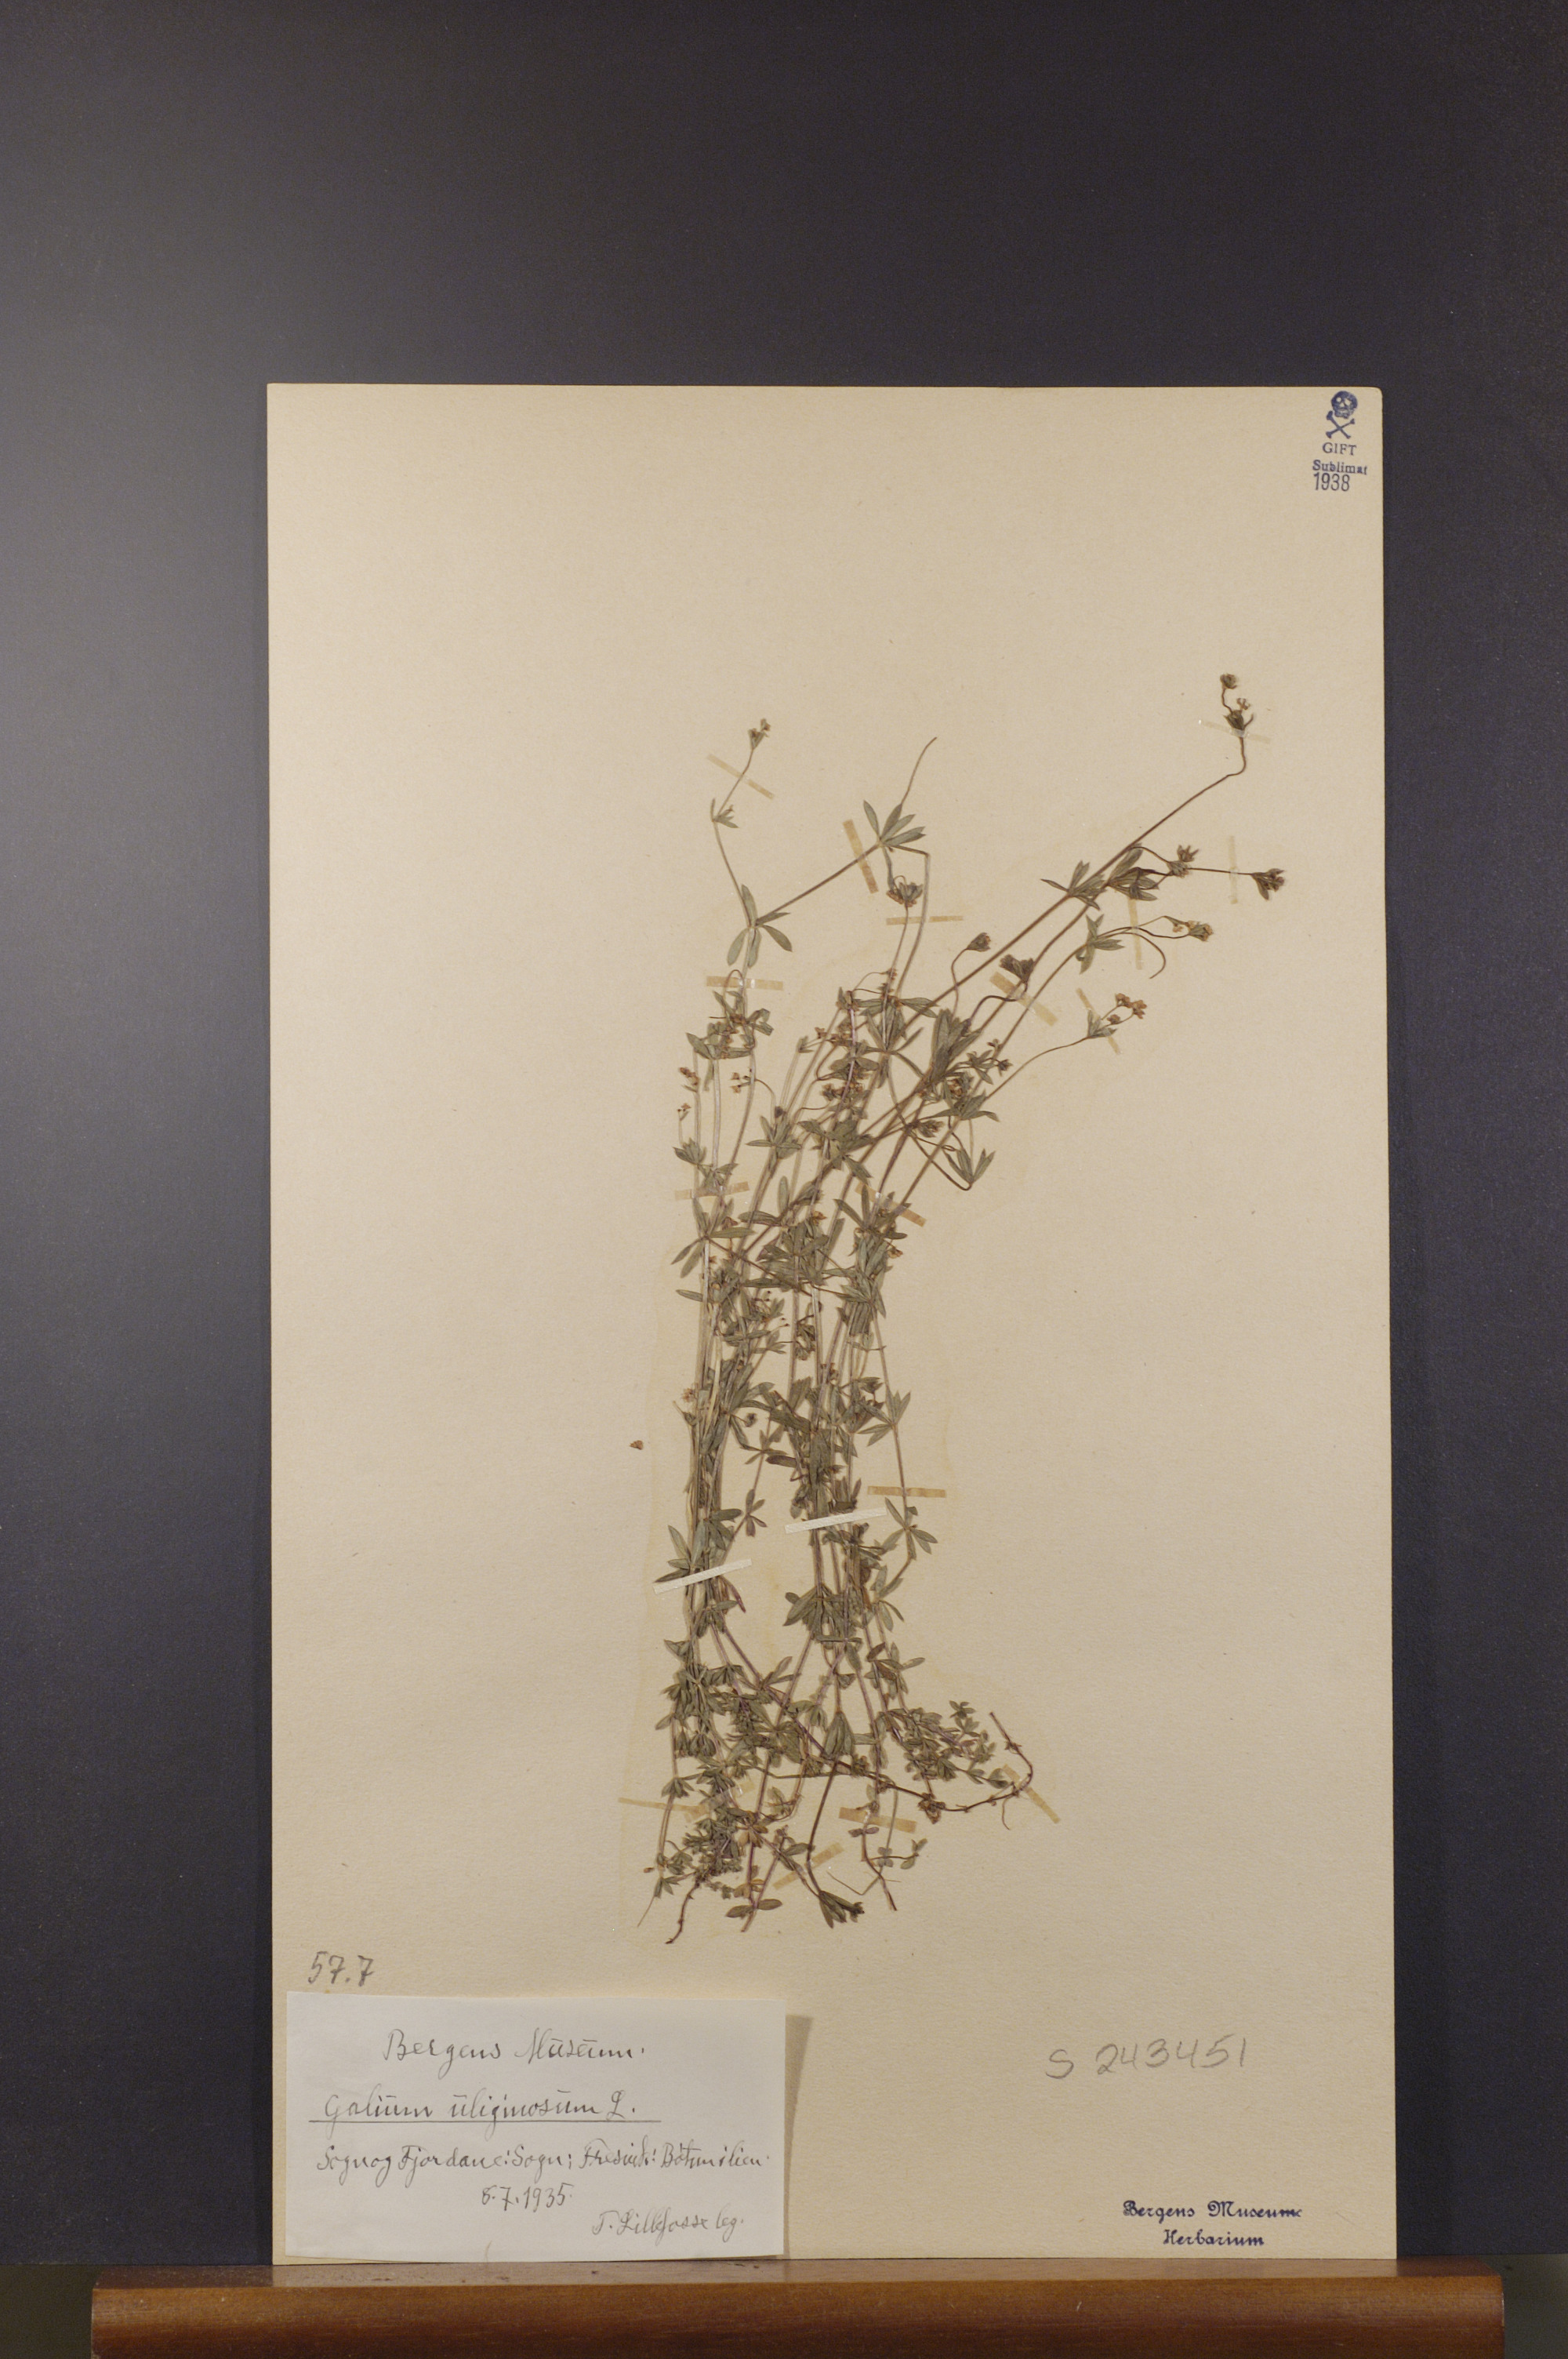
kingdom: Plantae
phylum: Tracheophyta
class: Magnoliopsida
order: Gentianales
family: Rubiaceae
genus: Galium
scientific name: Galium uliginosum
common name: Fen bedstraw
